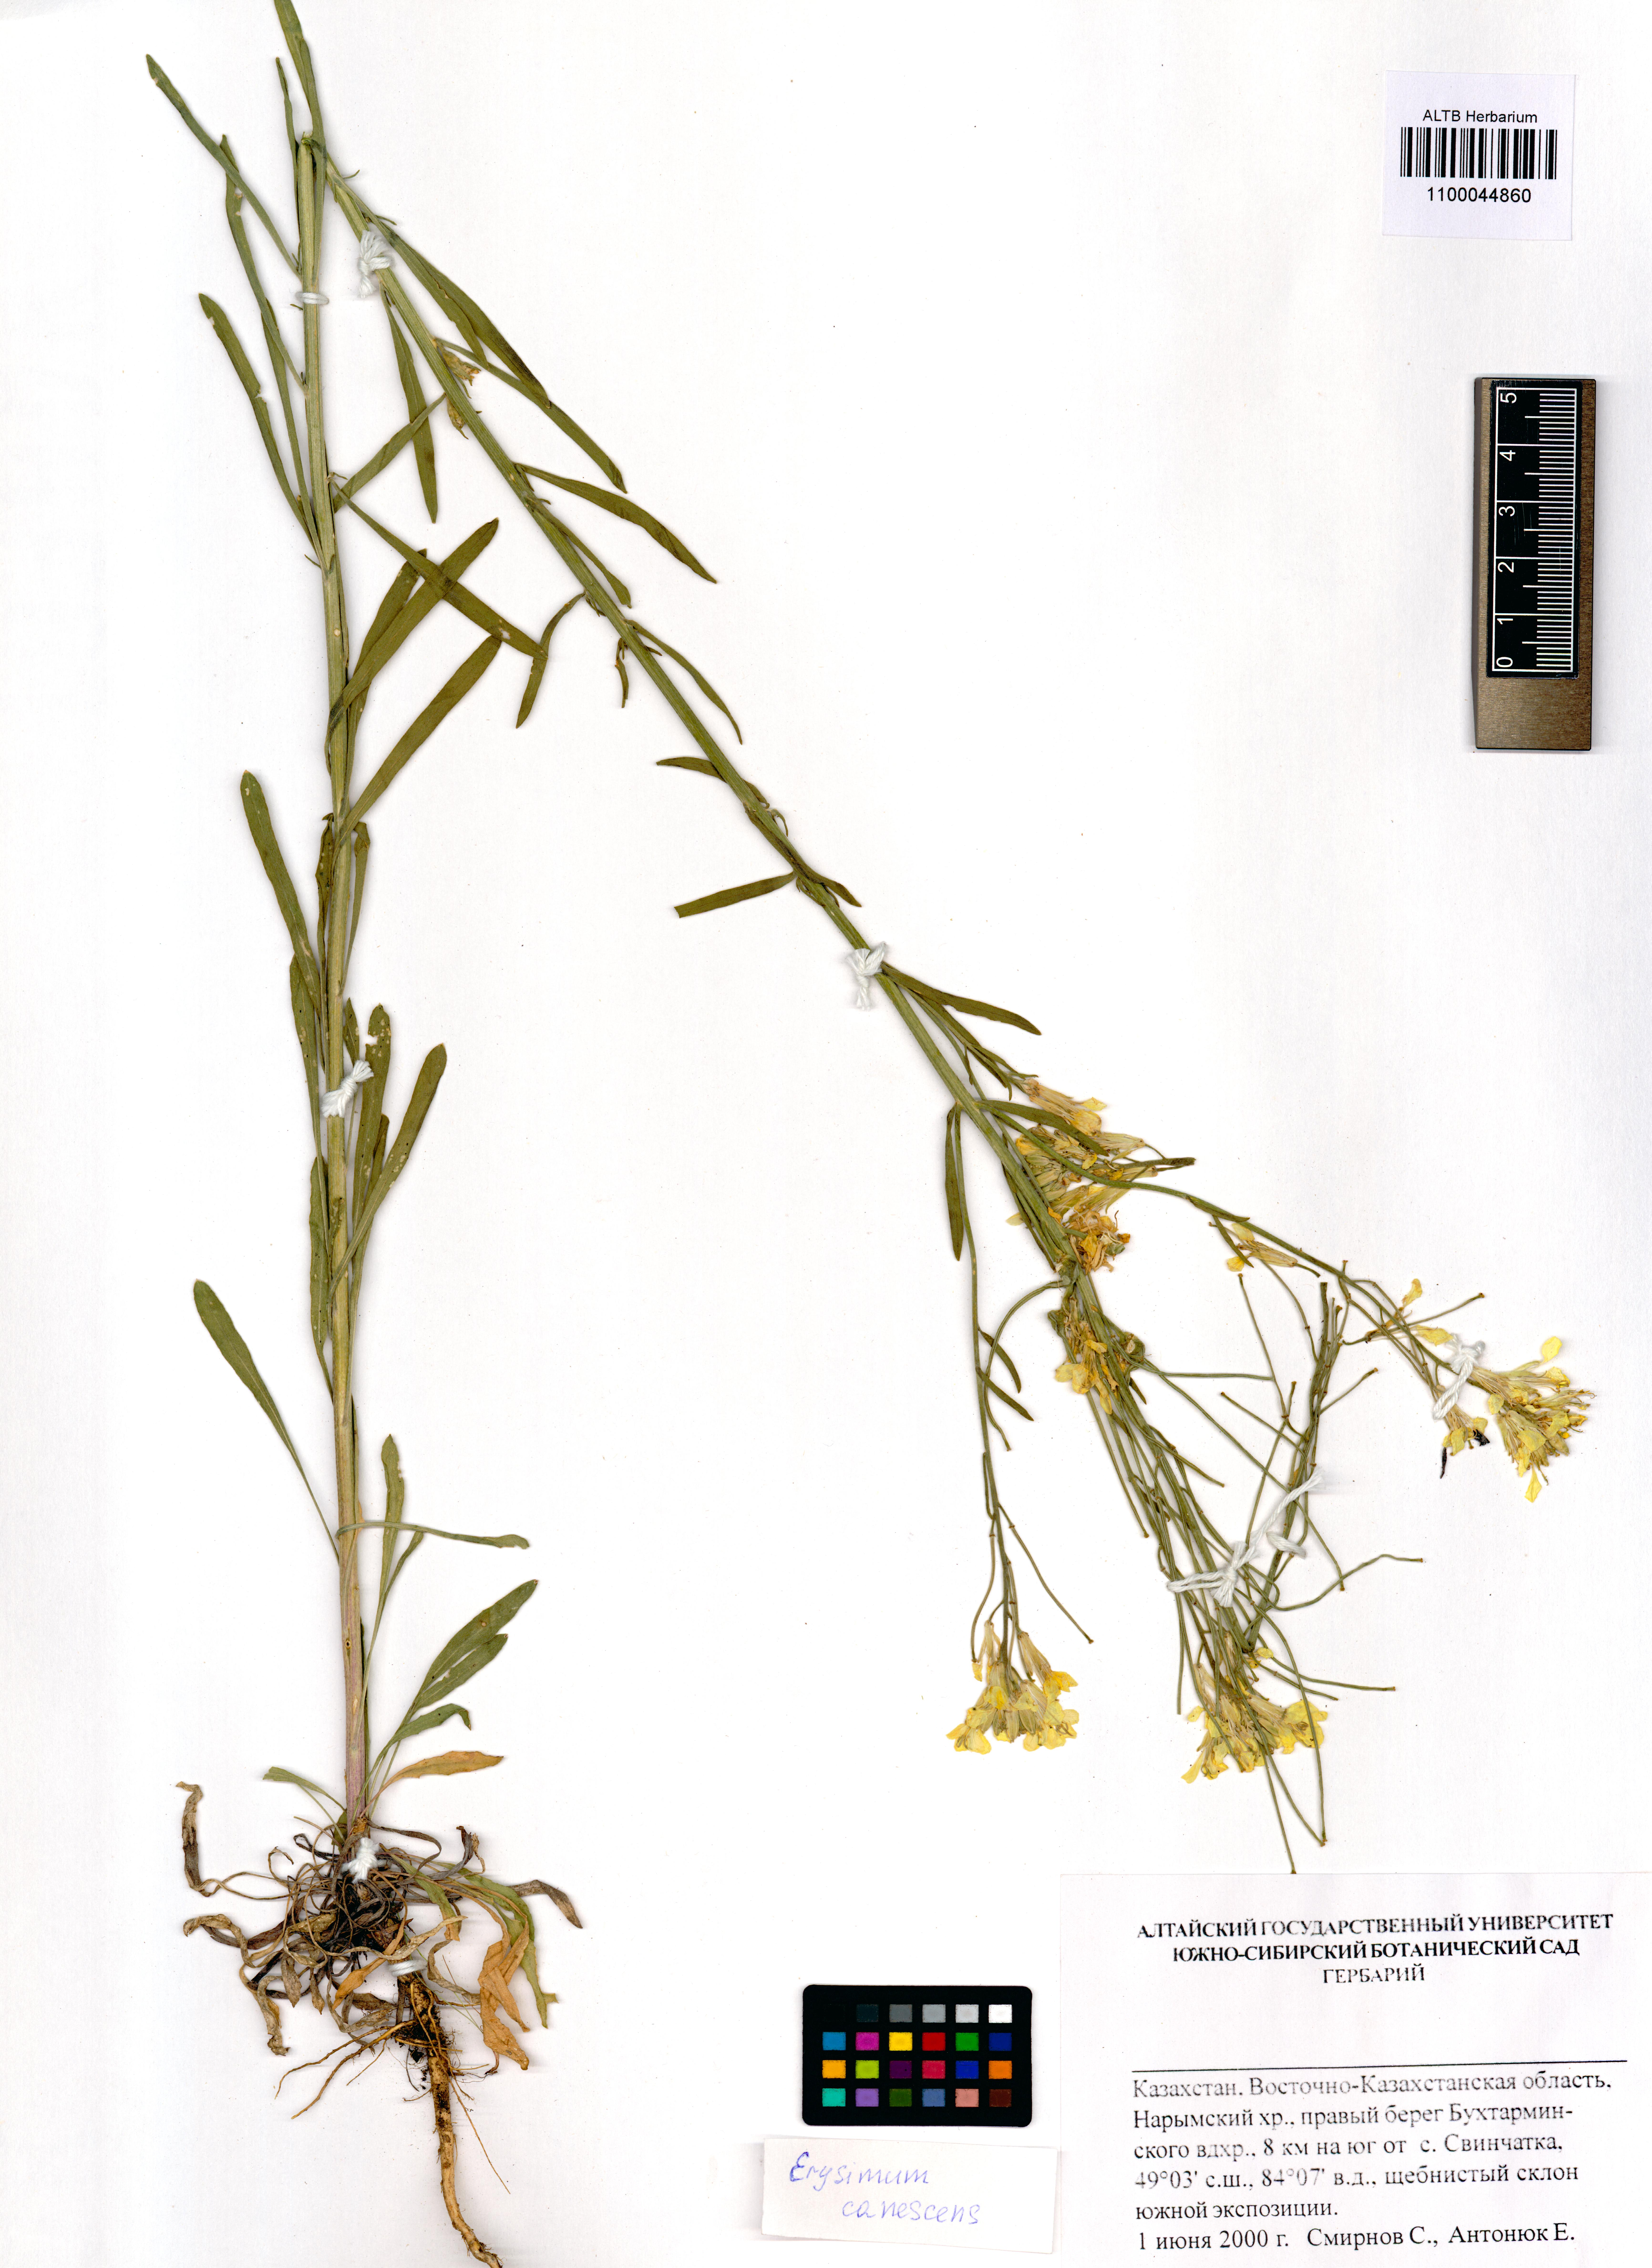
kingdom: Plantae
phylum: Tracheophyta
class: Magnoliopsida
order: Brassicales
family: Brassicaceae
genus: Erysimum
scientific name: Erysimum canescens
